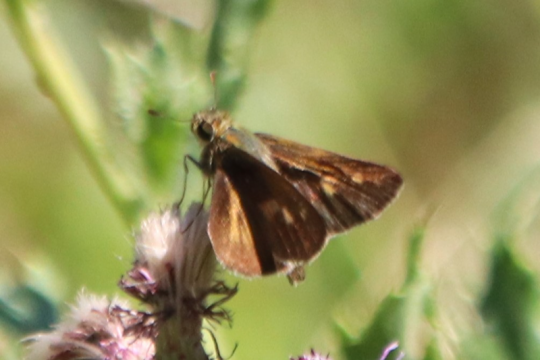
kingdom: Animalia
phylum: Arthropoda
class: Insecta
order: Lepidoptera
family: Hesperiidae
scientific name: Hesperiidae
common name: Skippers
